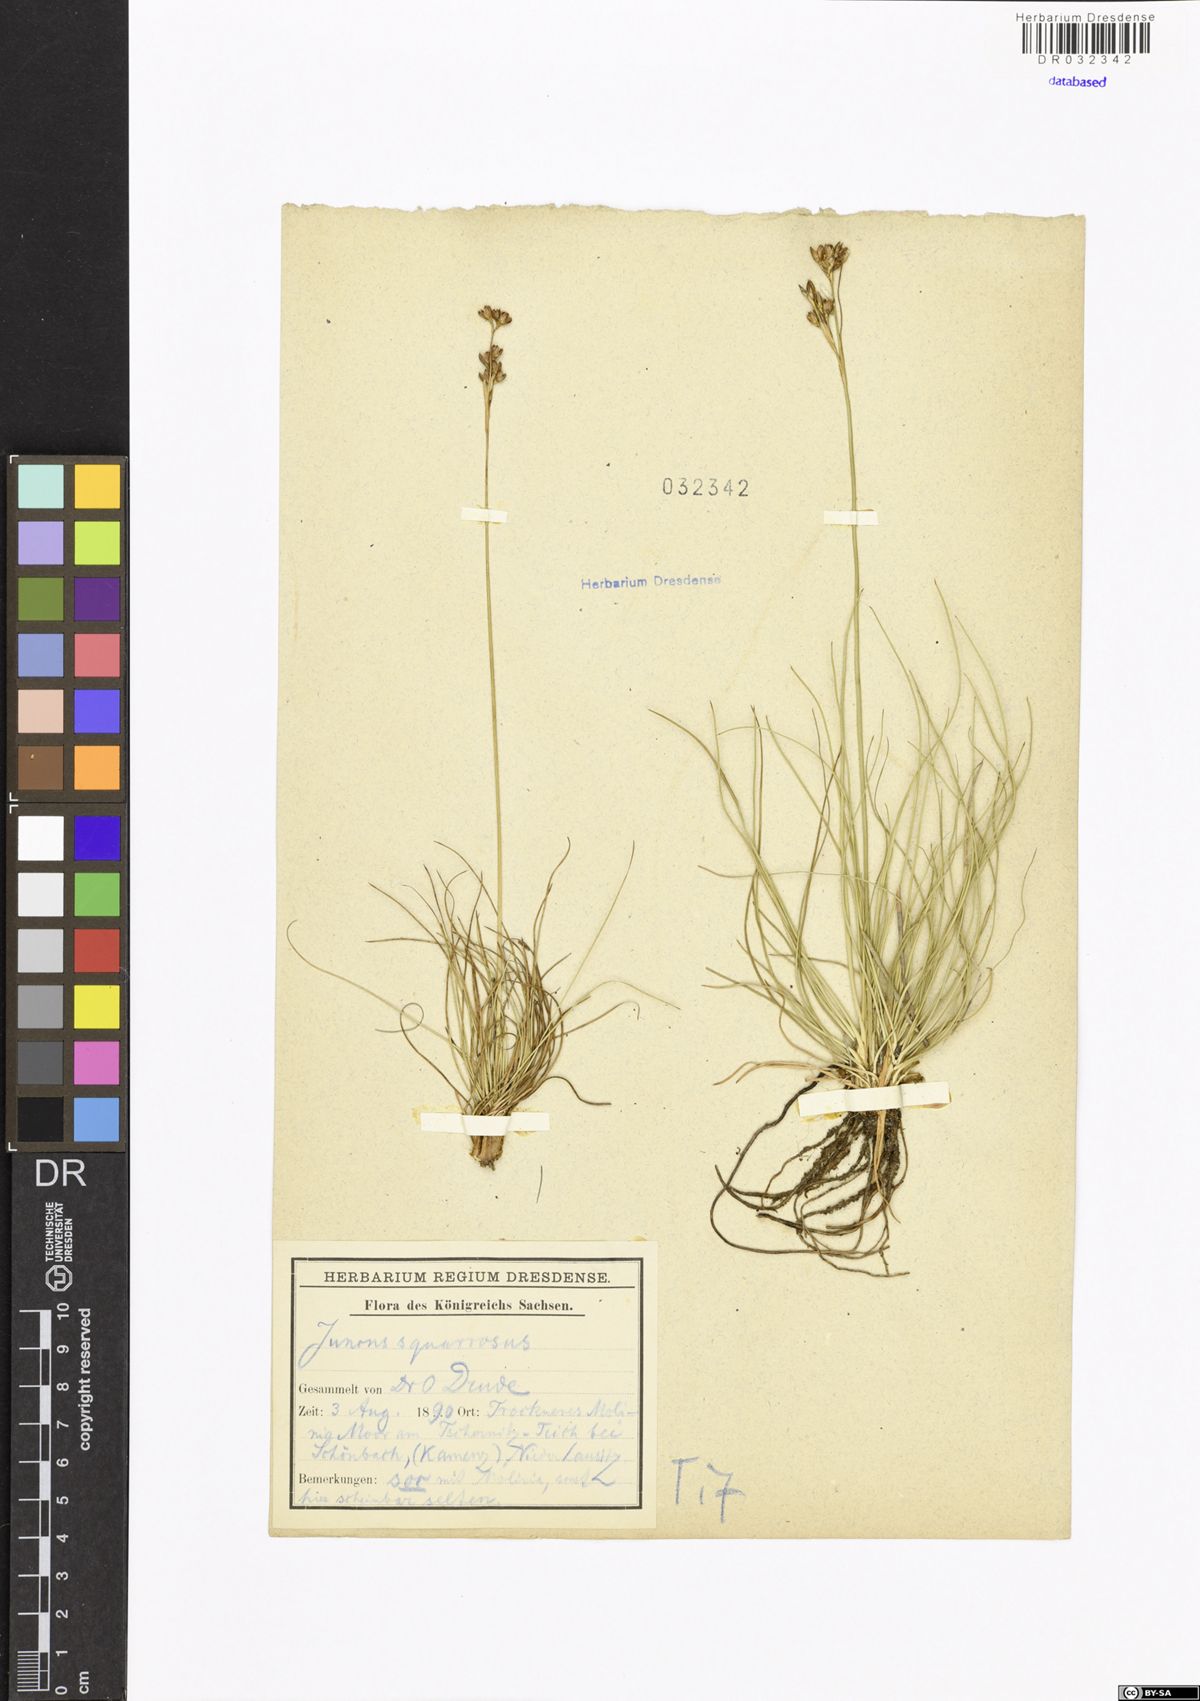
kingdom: Plantae
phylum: Tracheophyta
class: Liliopsida
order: Poales
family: Juncaceae
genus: Juncus
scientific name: Juncus squarrosus
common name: Heath rush
